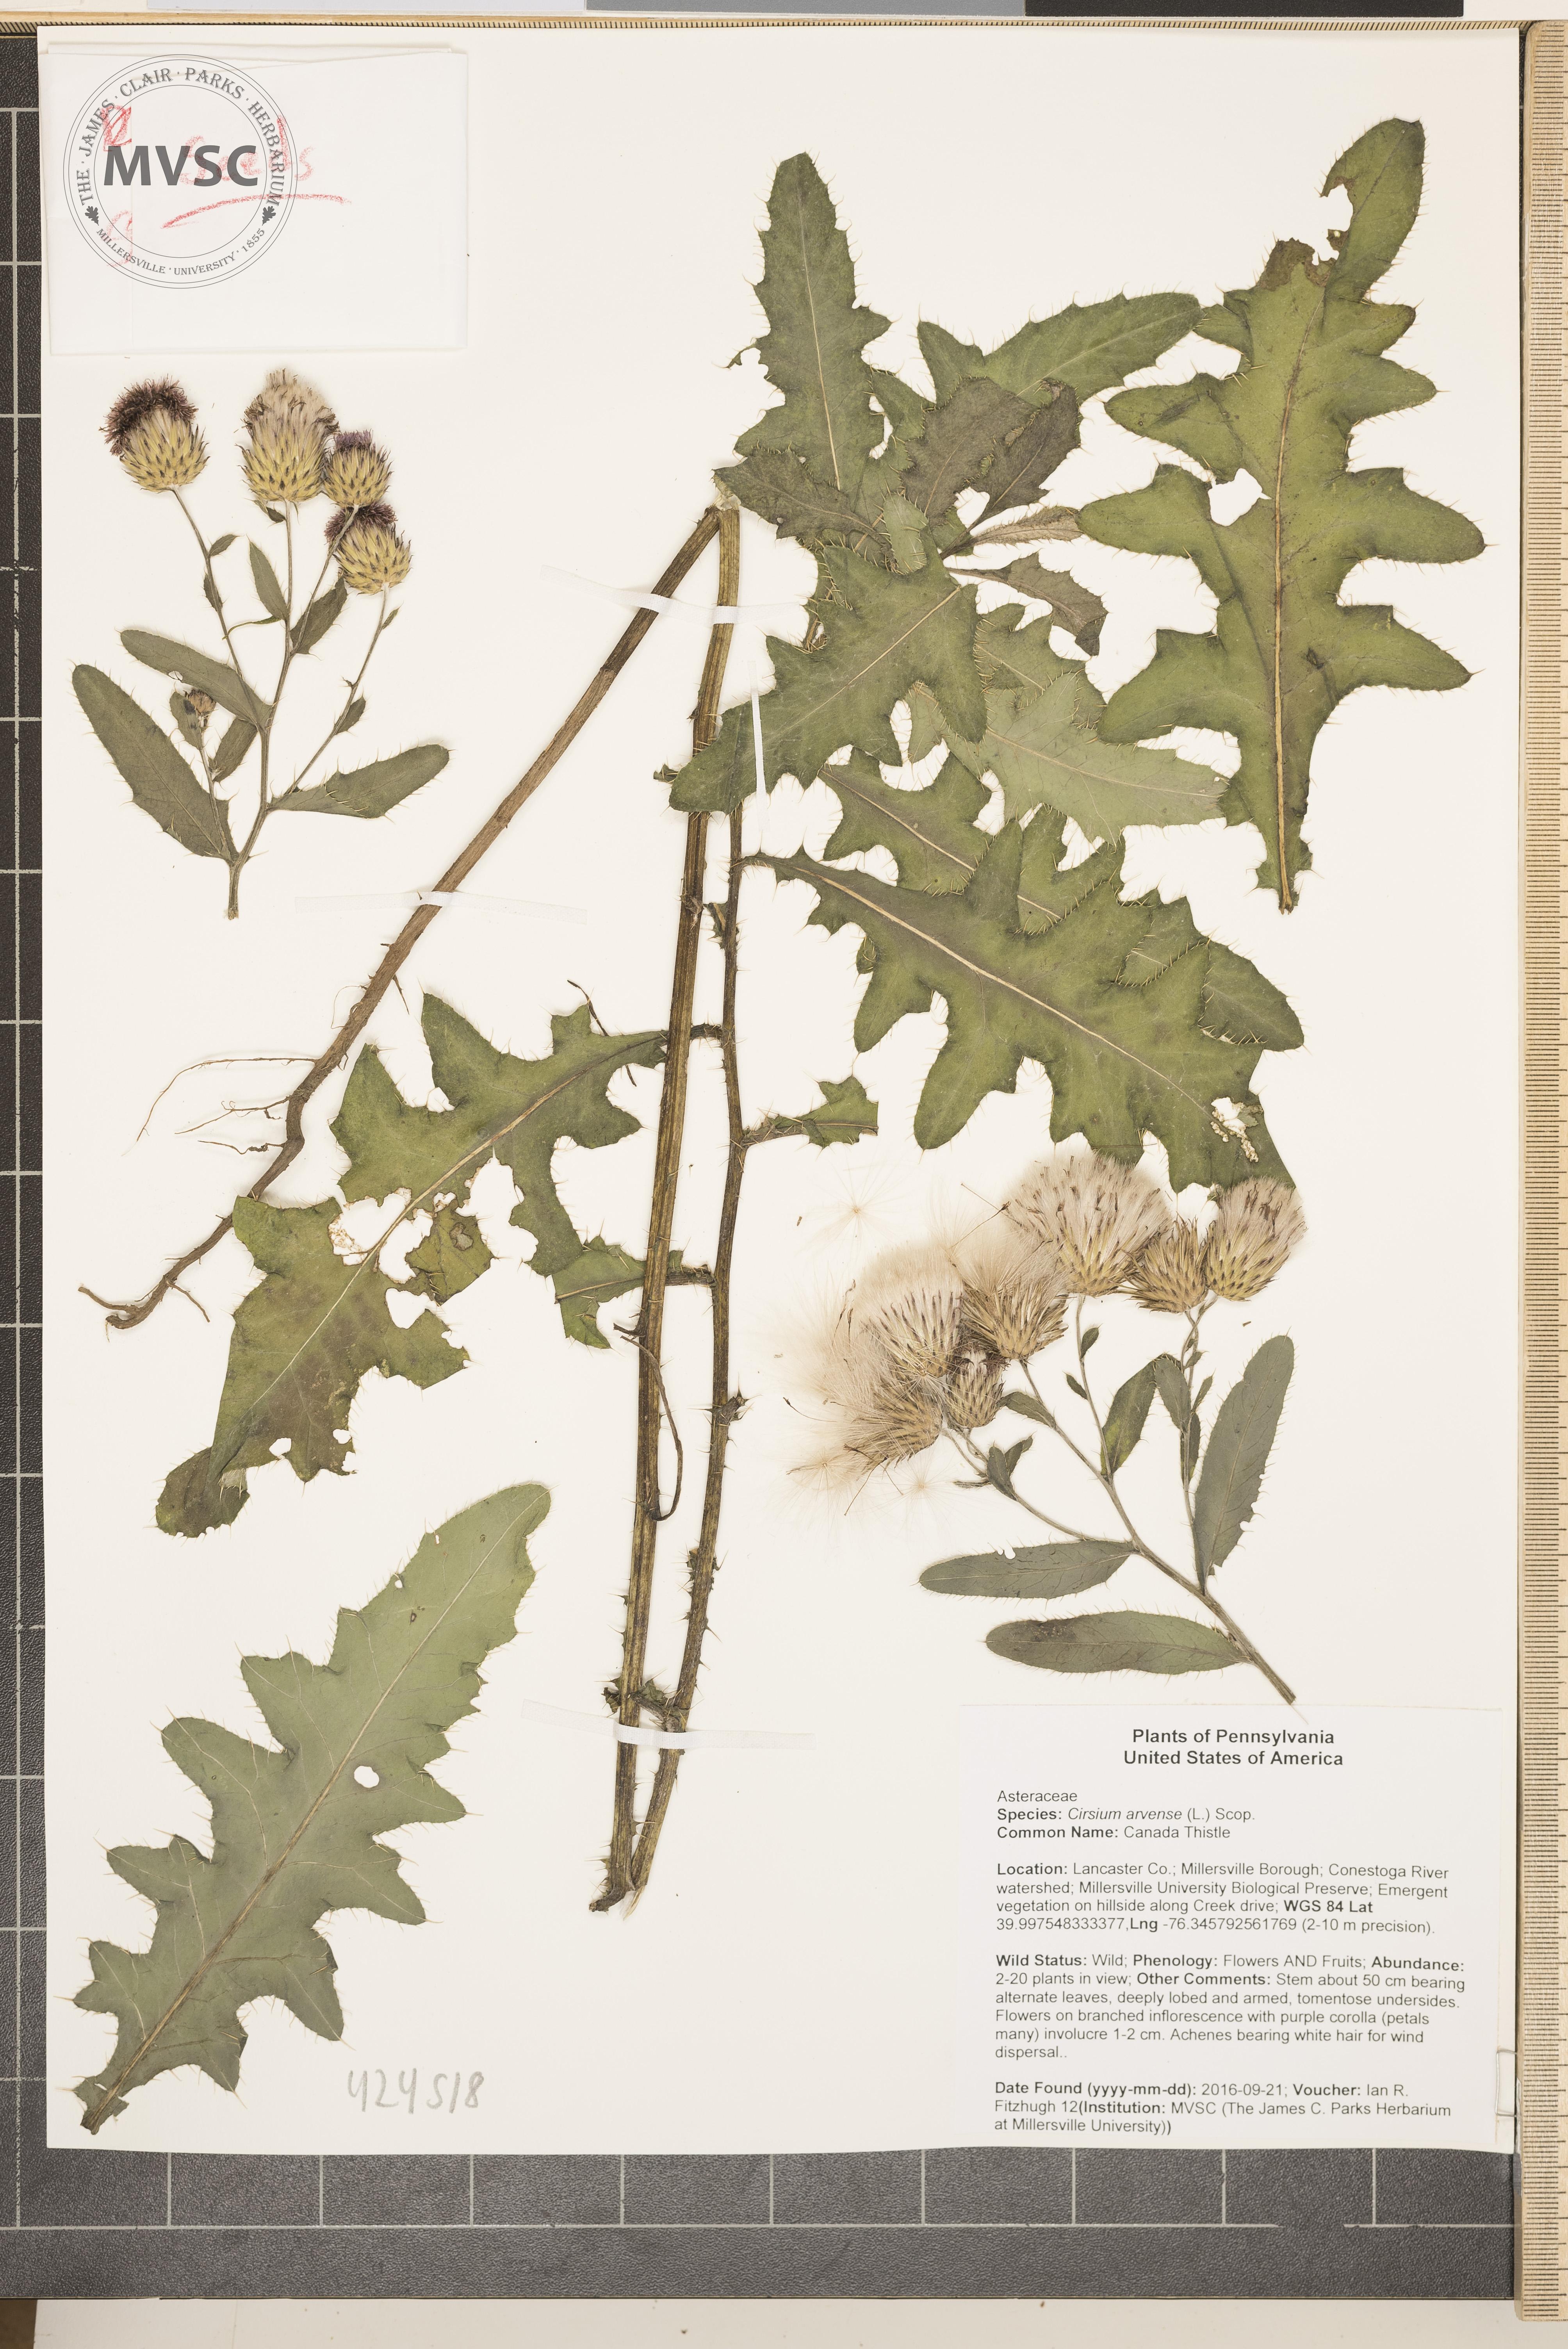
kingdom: Plantae
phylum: Tracheophyta
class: Magnoliopsida
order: Asterales
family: Asteraceae
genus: Cirsium
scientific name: Cirsium arvense
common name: Canada Thistle
